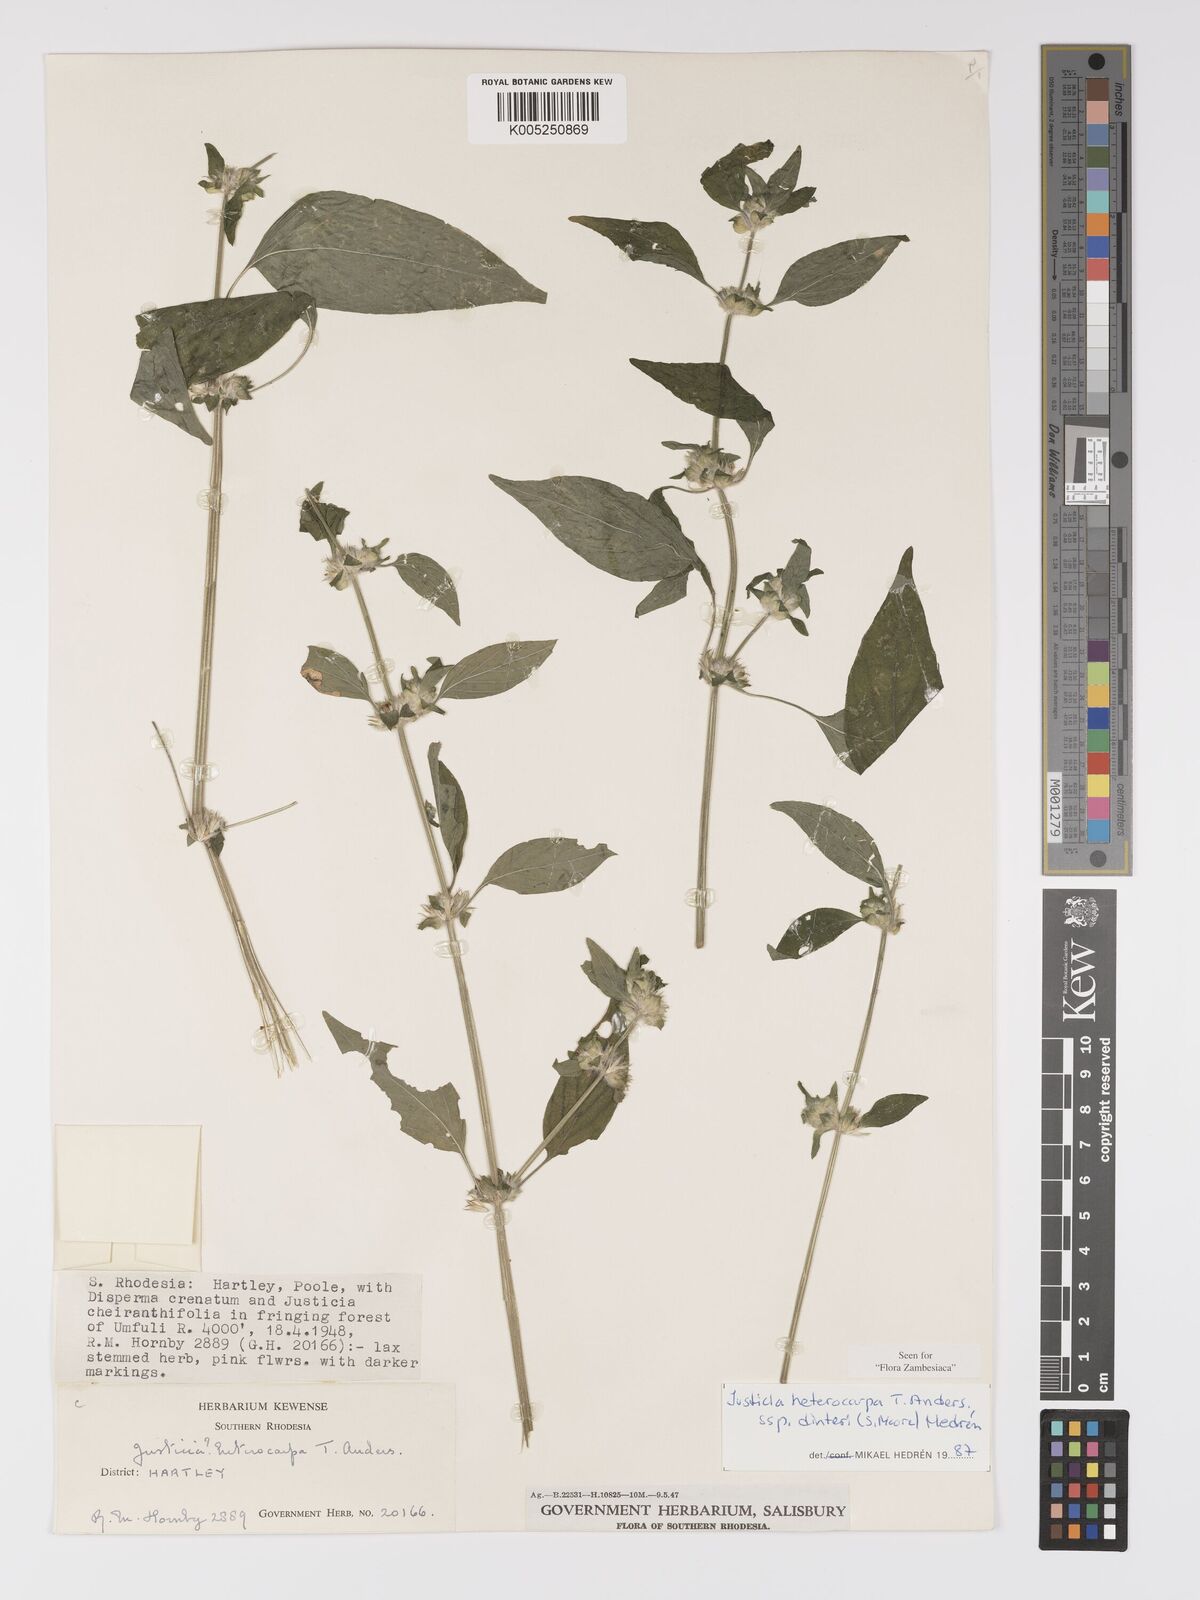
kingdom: Plantae
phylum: Tracheophyta
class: Magnoliopsida
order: Lamiales
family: Acanthaceae
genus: Justicia
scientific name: Justicia heterocarpa
